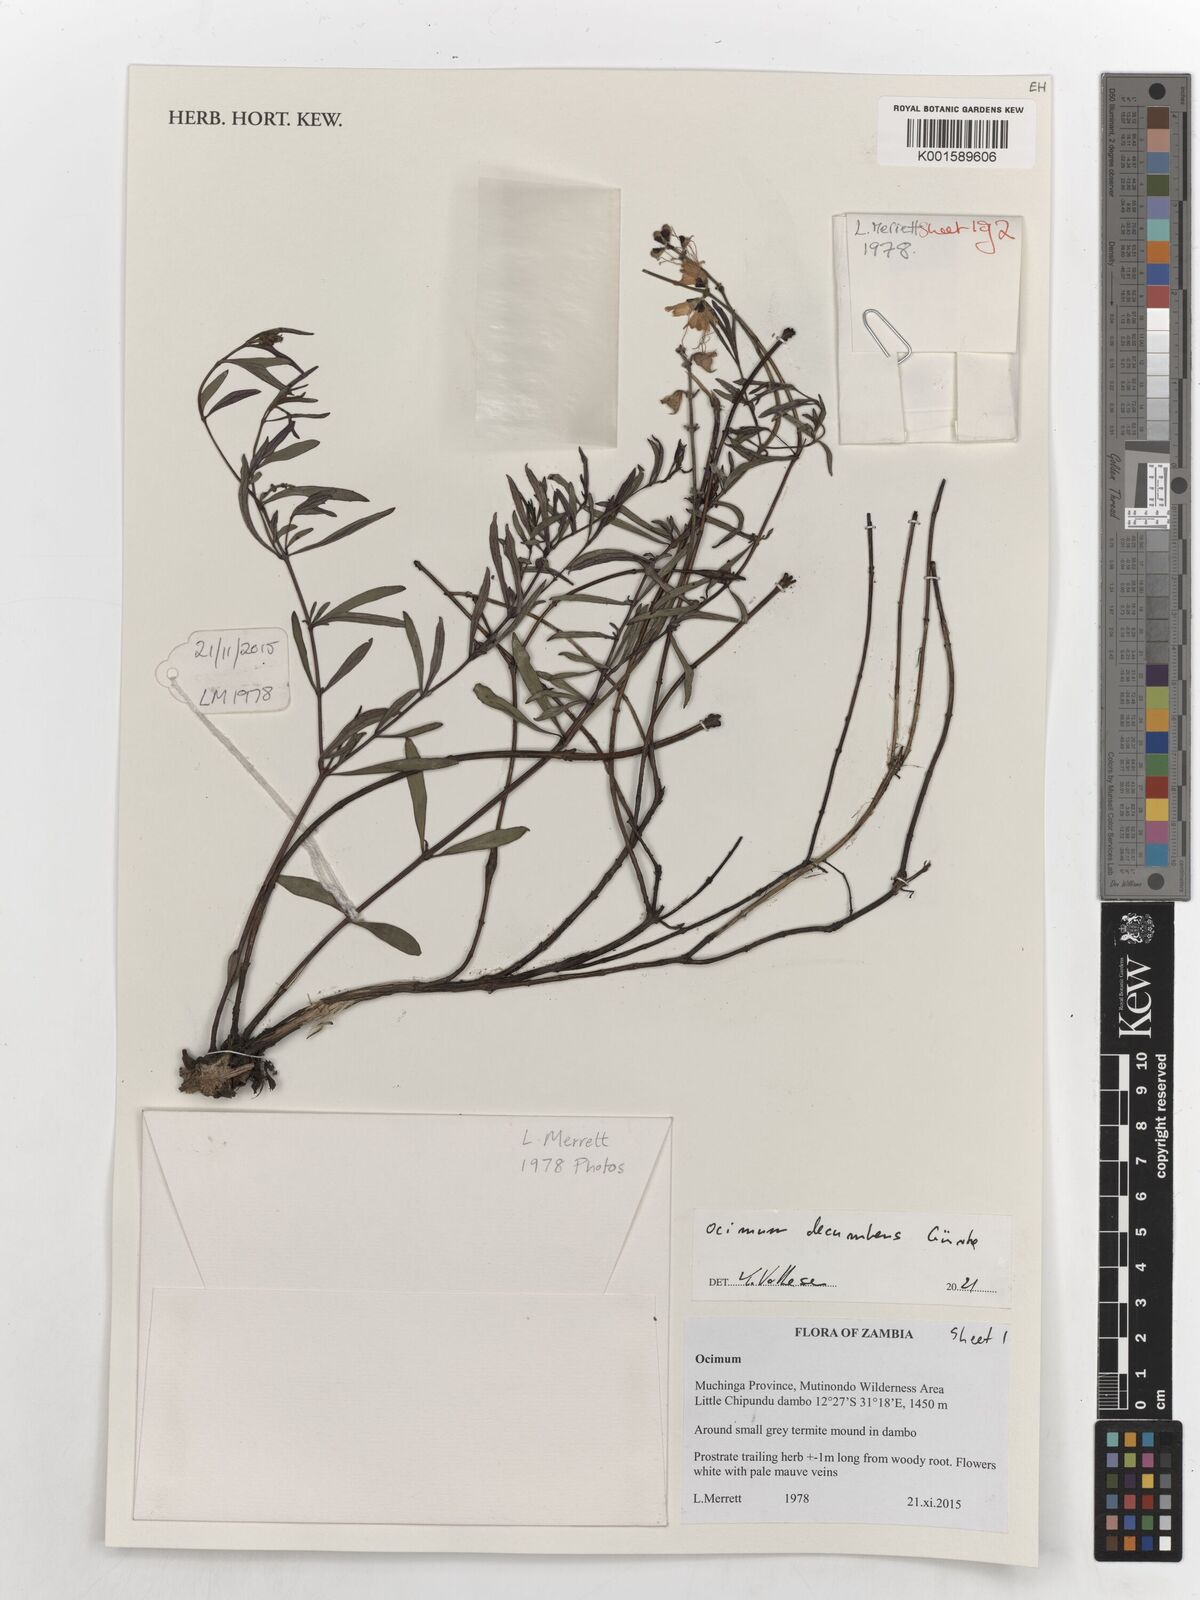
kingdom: Plantae
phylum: Tracheophyta
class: Magnoliopsida
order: Lamiales
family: Lamiaceae
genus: Ocimum
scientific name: Ocimum decumbens
